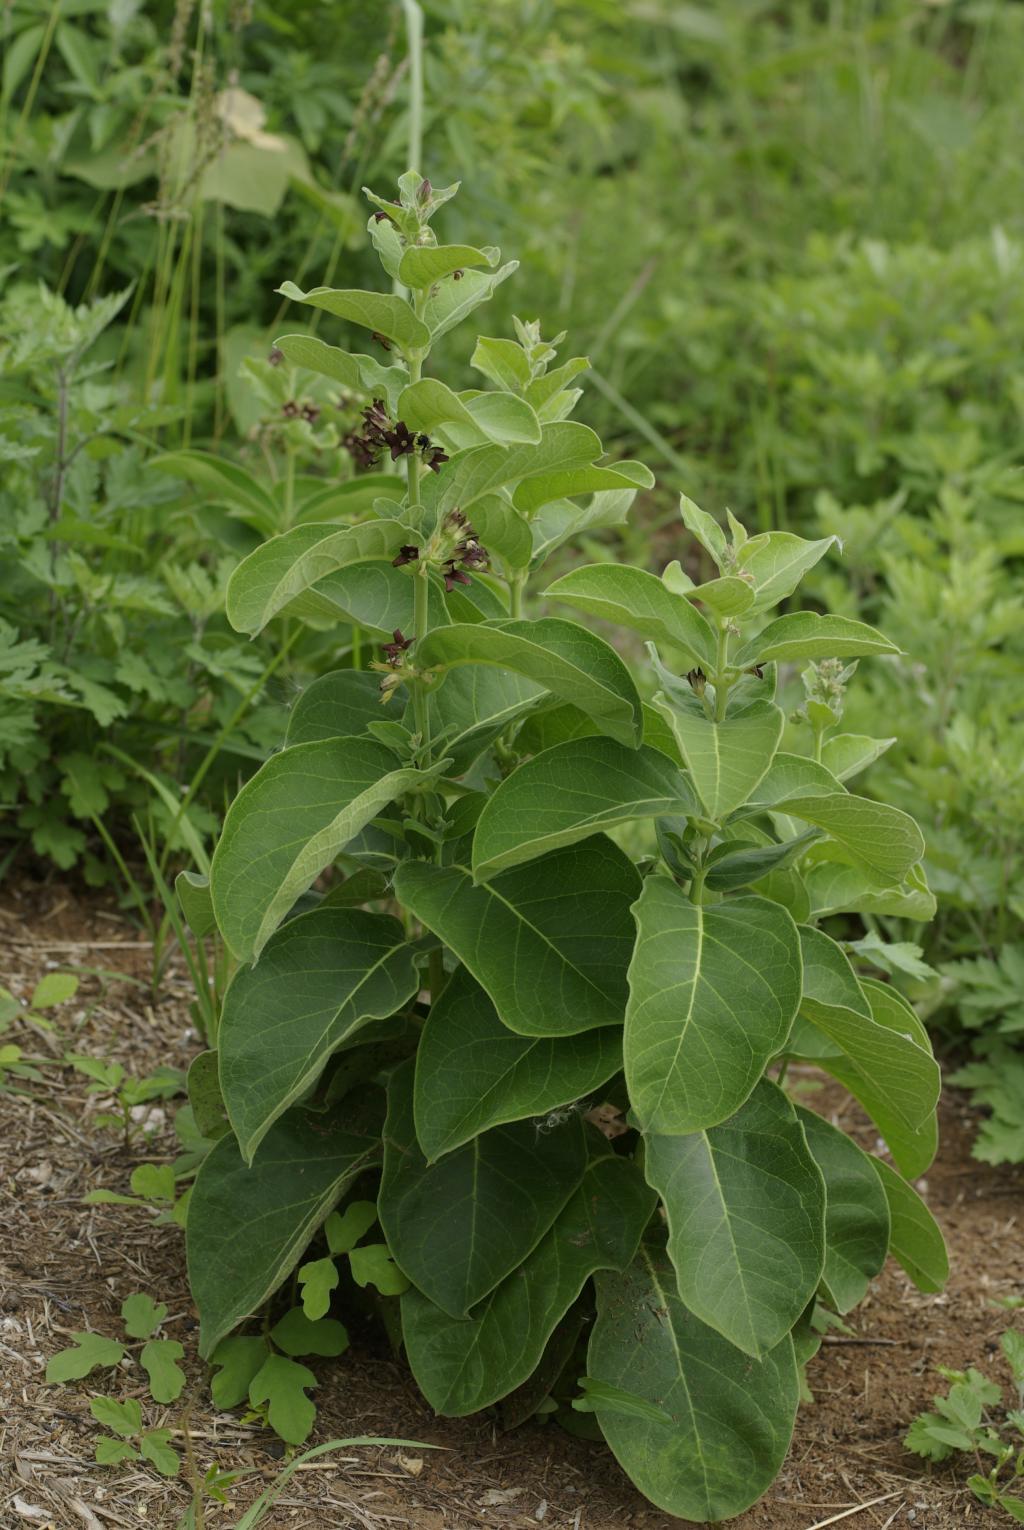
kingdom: Plantae
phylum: Tracheophyta
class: Magnoliopsida
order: Gentianales
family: Apocynaceae
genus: Vincetoxicum
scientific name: Vincetoxicum atratum
